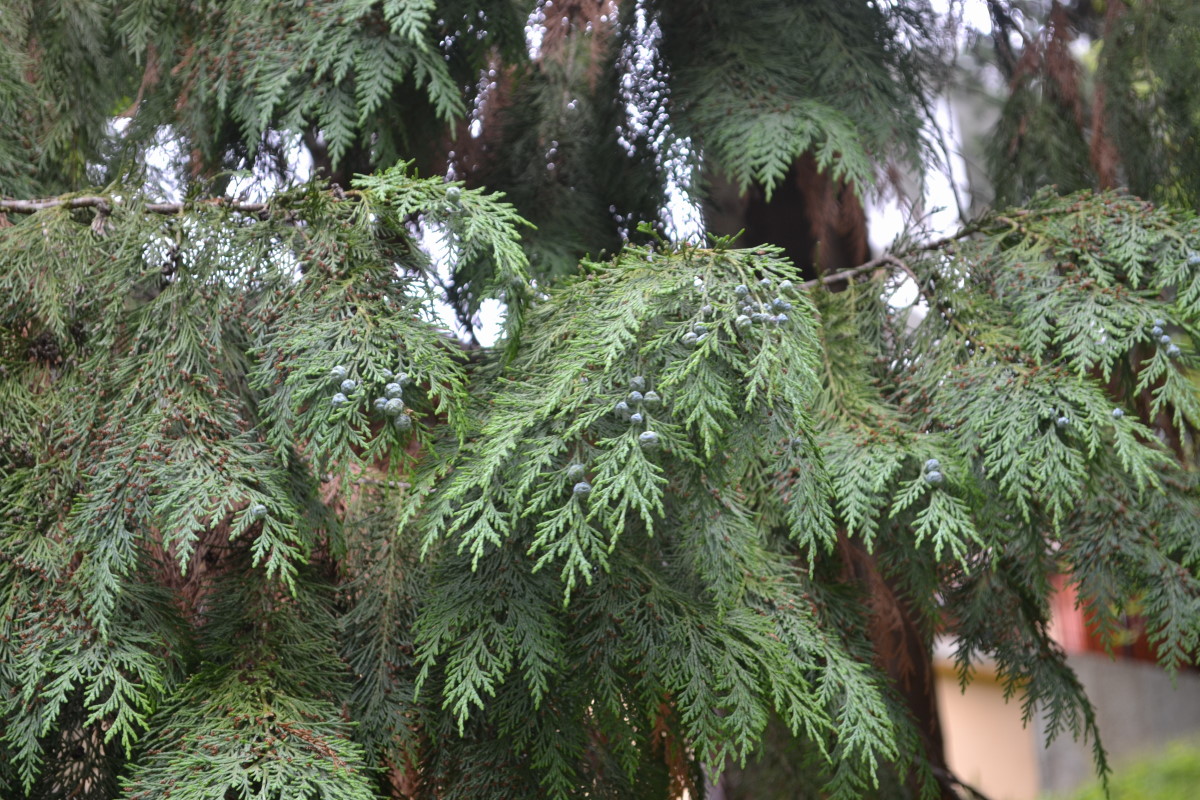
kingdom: Plantae
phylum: Tracheophyta
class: Pinopsida
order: Pinales
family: Cupressaceae
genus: Chamaecyparis
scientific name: Chamaecyparis lawsoniana
